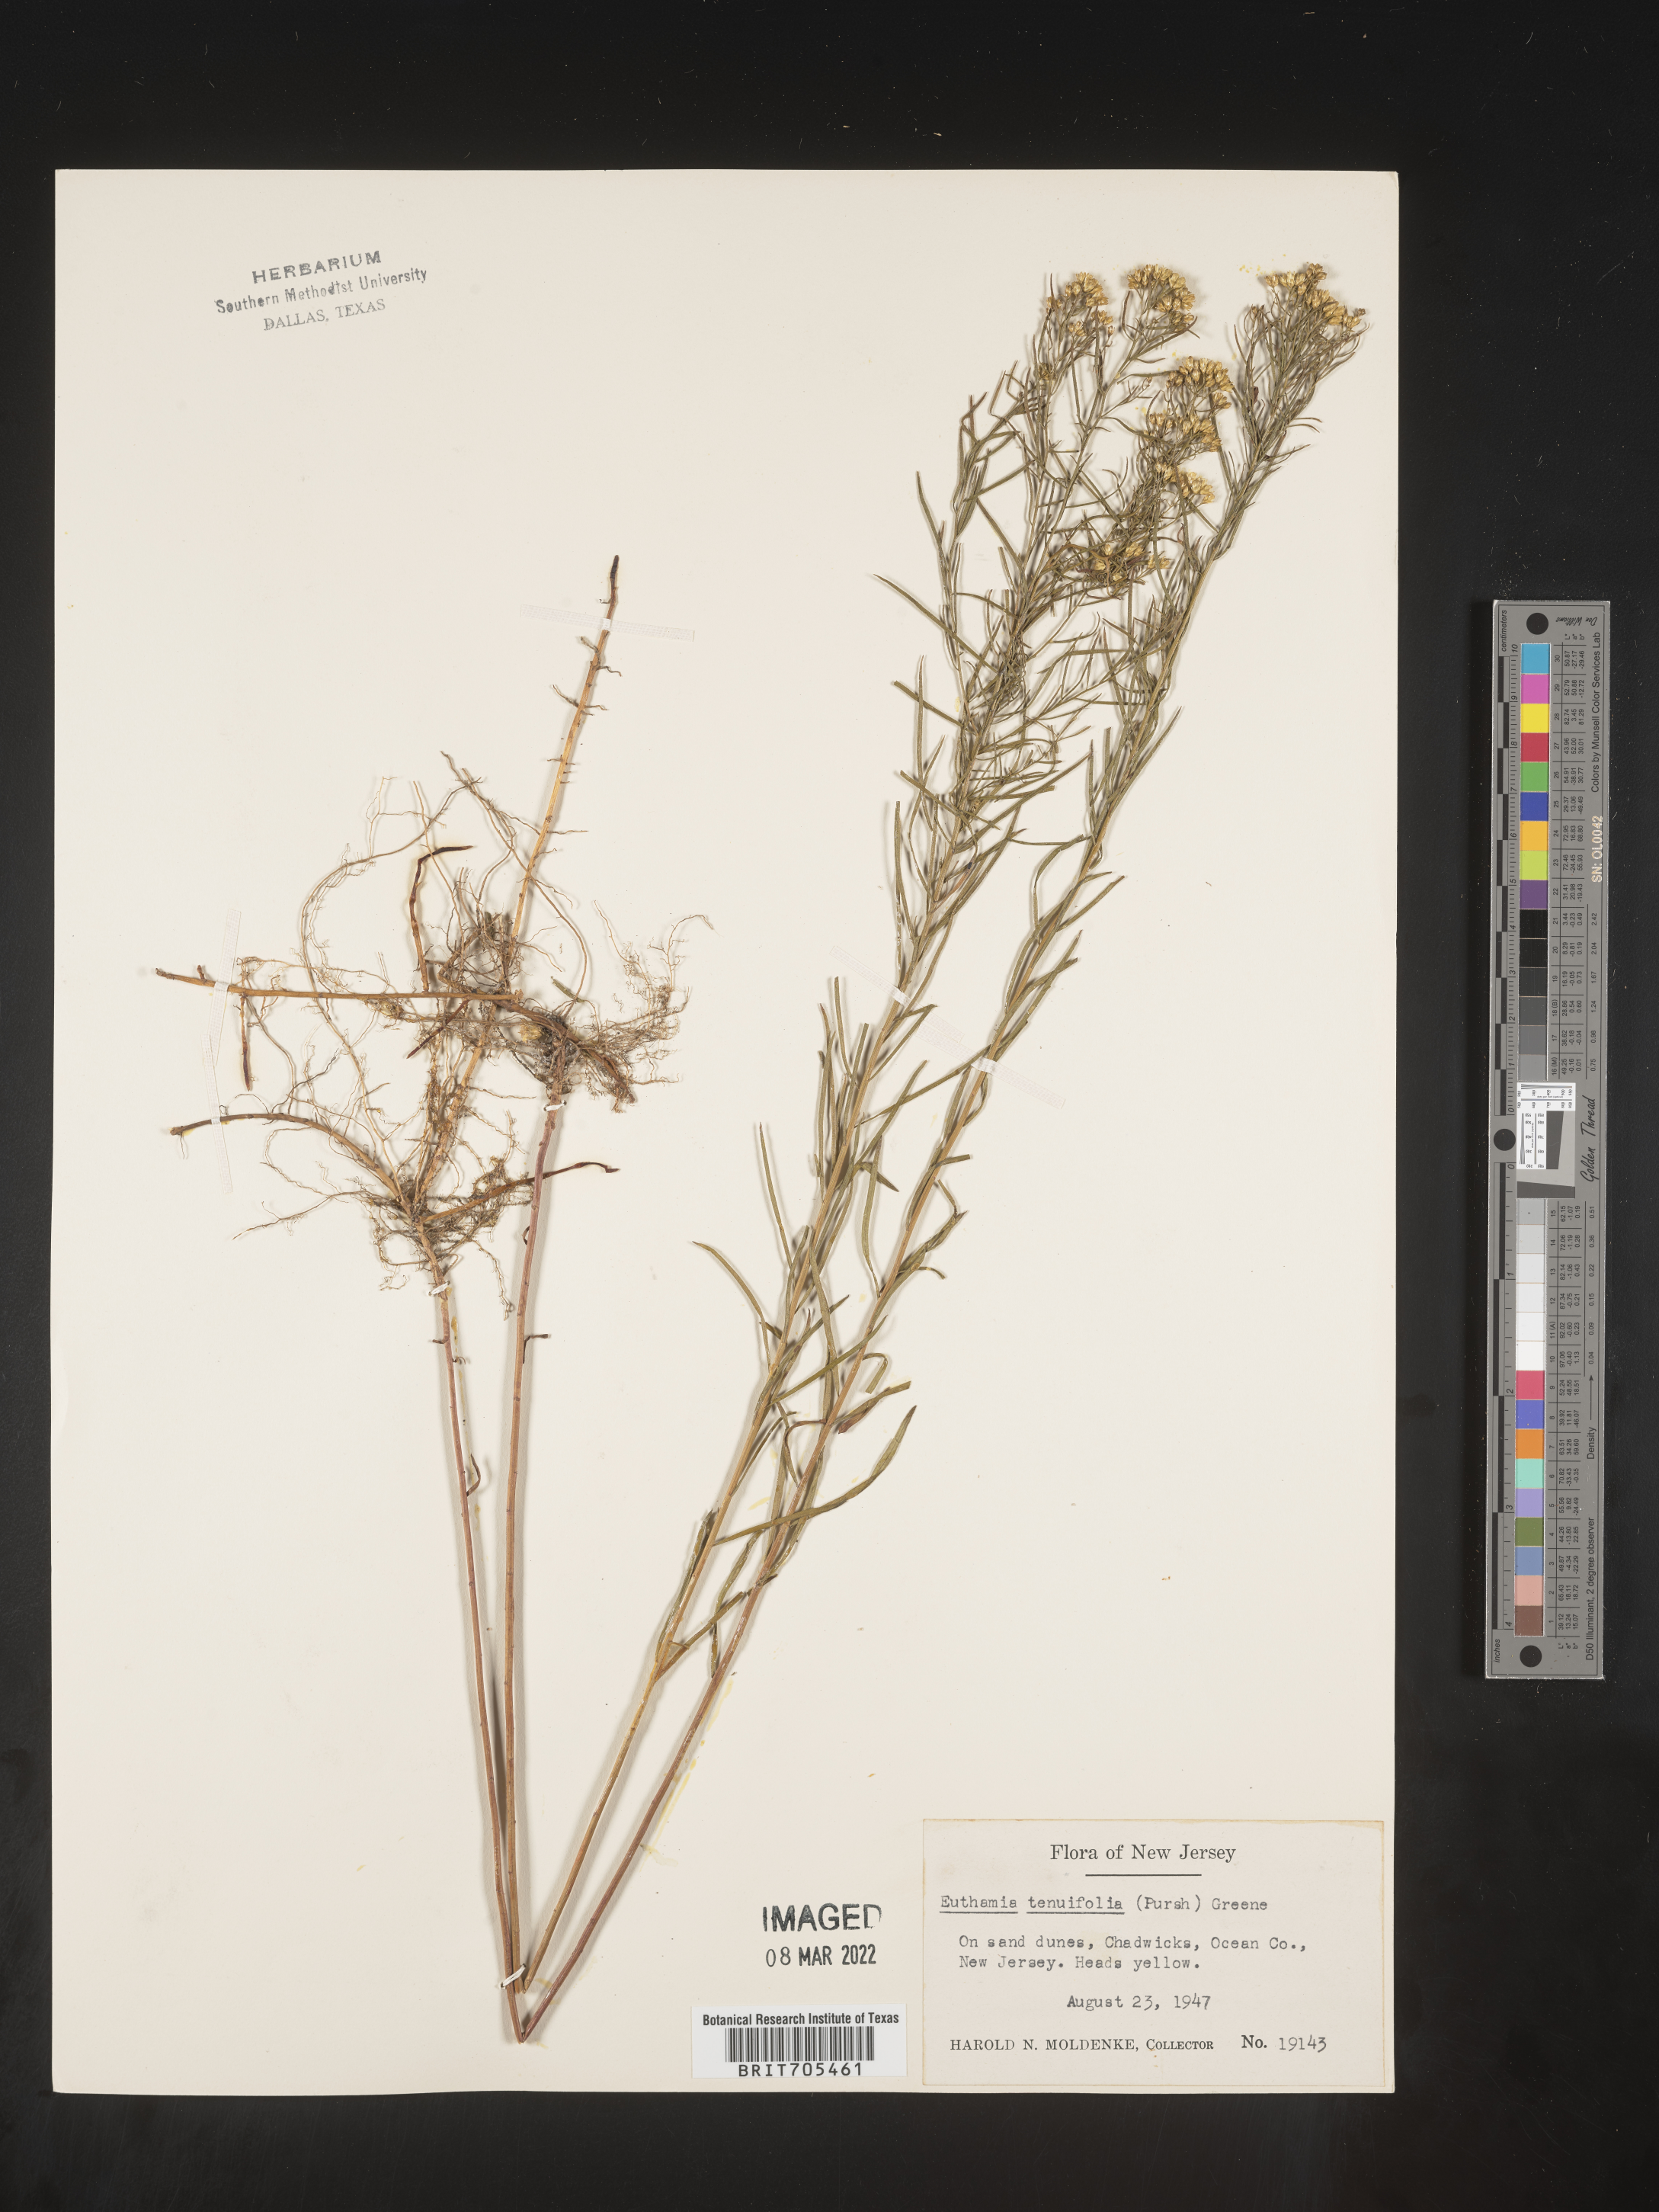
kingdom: Plantae
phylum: Tracheophyta
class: Magnoliopsida
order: Asterales
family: Asteraceae
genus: Euthamia
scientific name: Euthamia caroliniana
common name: Coastal plain goldentop
